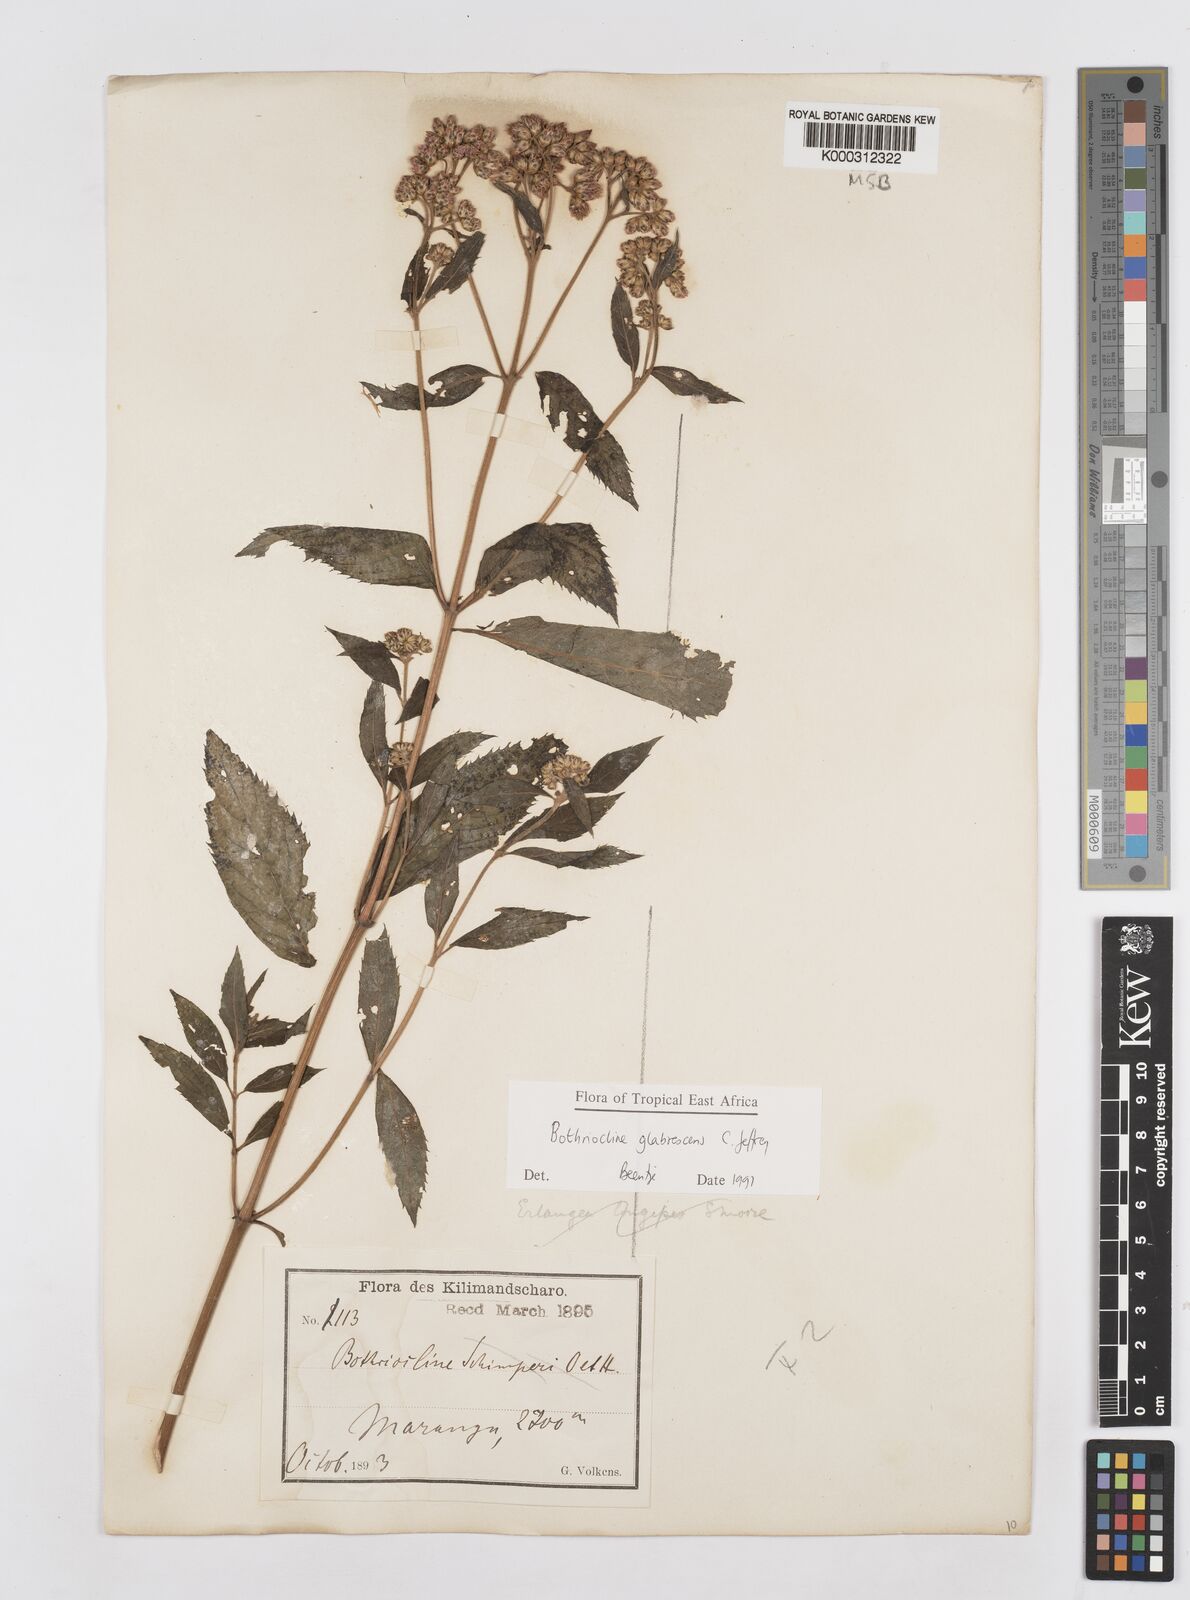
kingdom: Plantae
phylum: Tracheophyta
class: Magnoliopsida
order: Asterales
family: Asteraceae
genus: Bothriocline
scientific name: Bothriocline glabrescens
